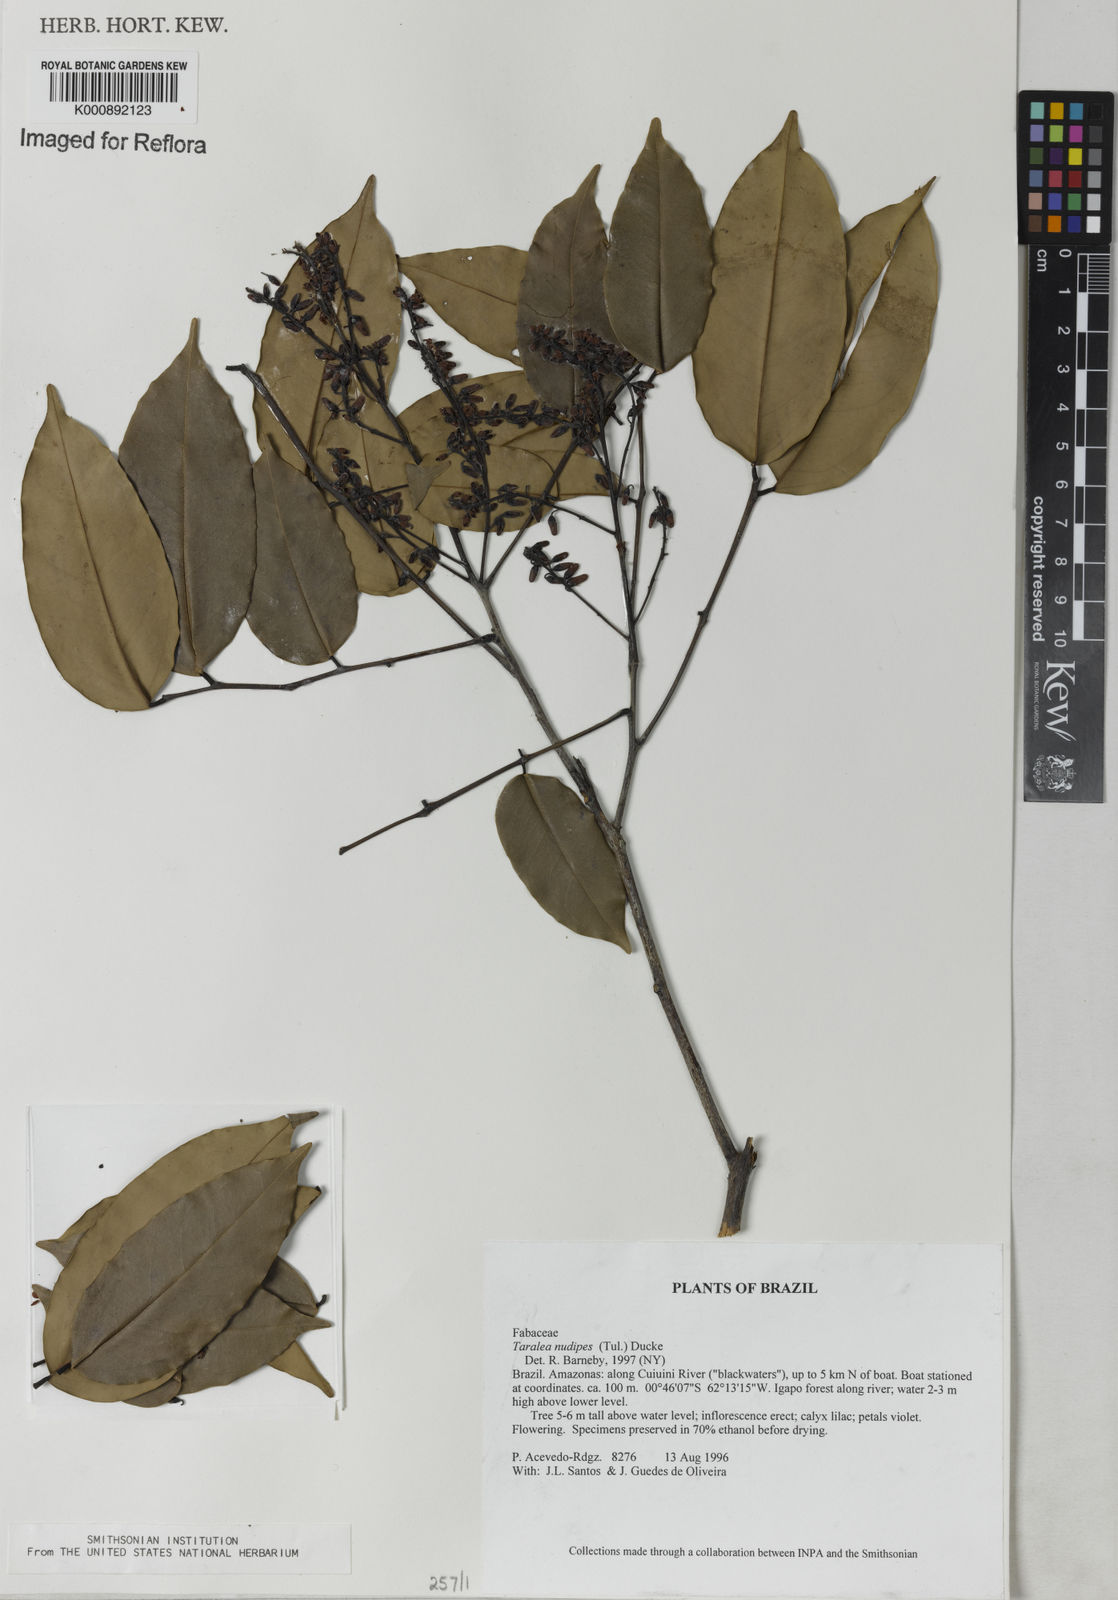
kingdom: Plantae
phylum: Tracheophyta
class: Magnoliopsida
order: Fabales
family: Fabaceae
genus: Taralea
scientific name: Taralea nudipes
